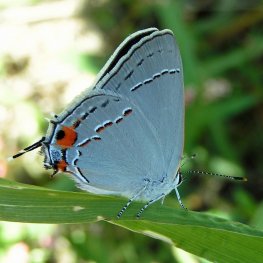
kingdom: Animalia
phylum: Arthropoda
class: Insecta
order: Lepidoptera
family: Lycaenidae
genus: Strymon
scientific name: Strymon melinus
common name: Gray Hairstreak
